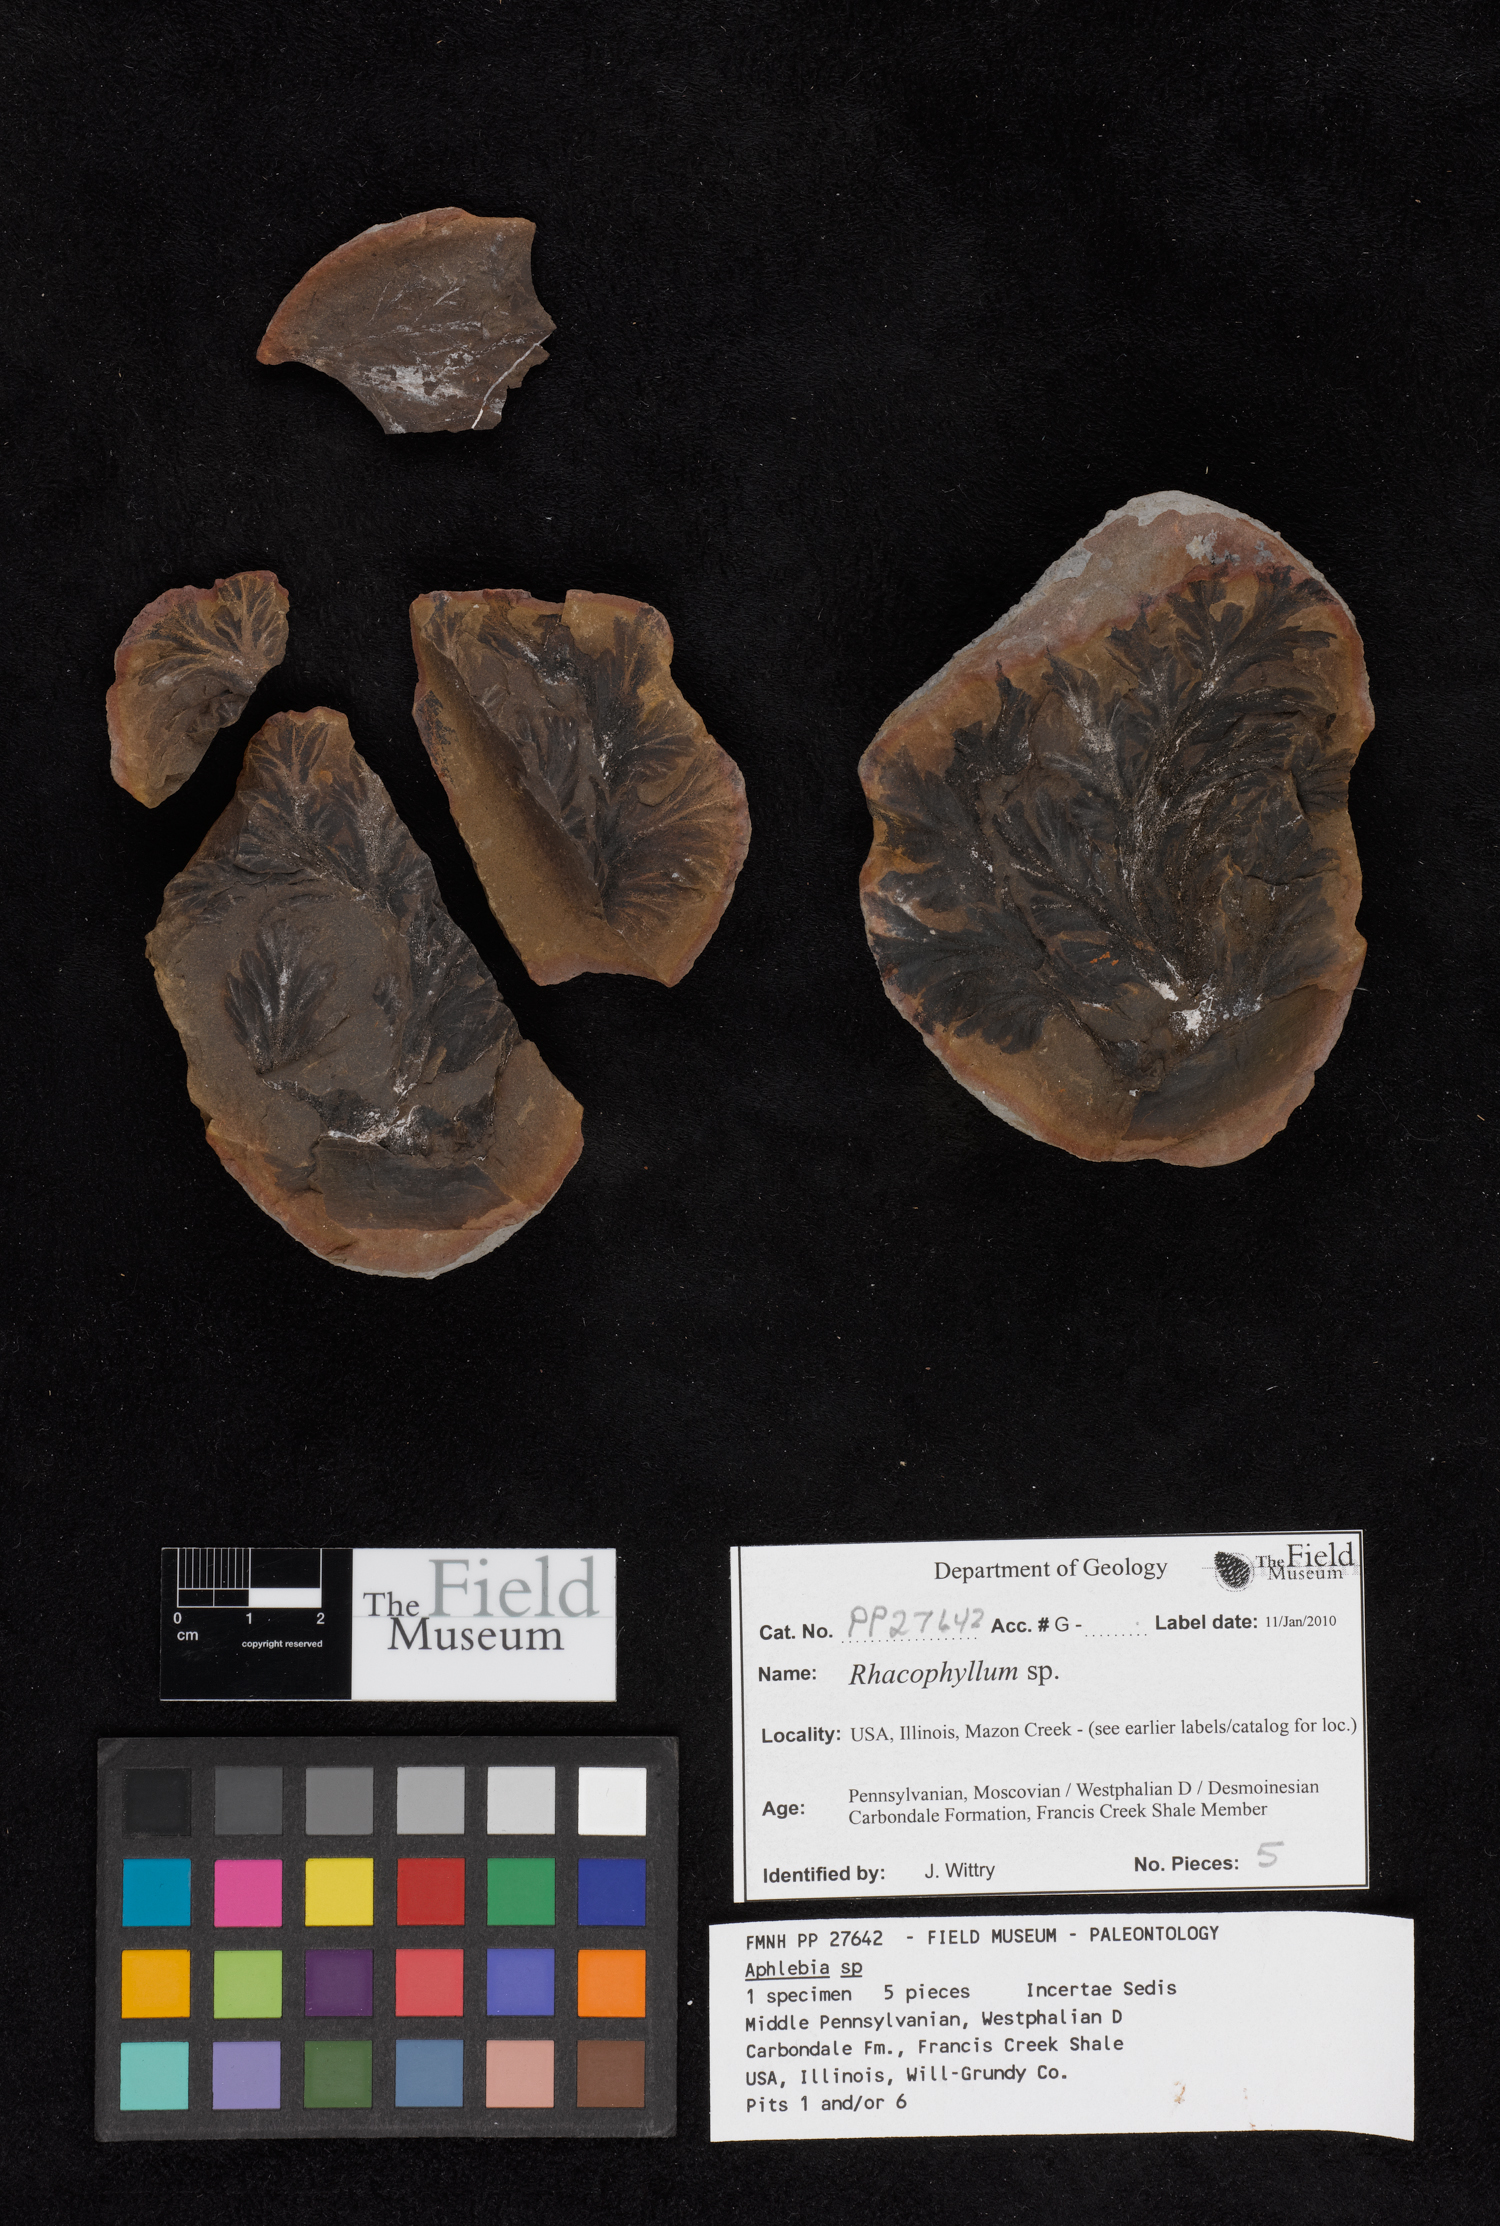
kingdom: Plantae
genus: Rhacophyllum
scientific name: Rhacophyllum
